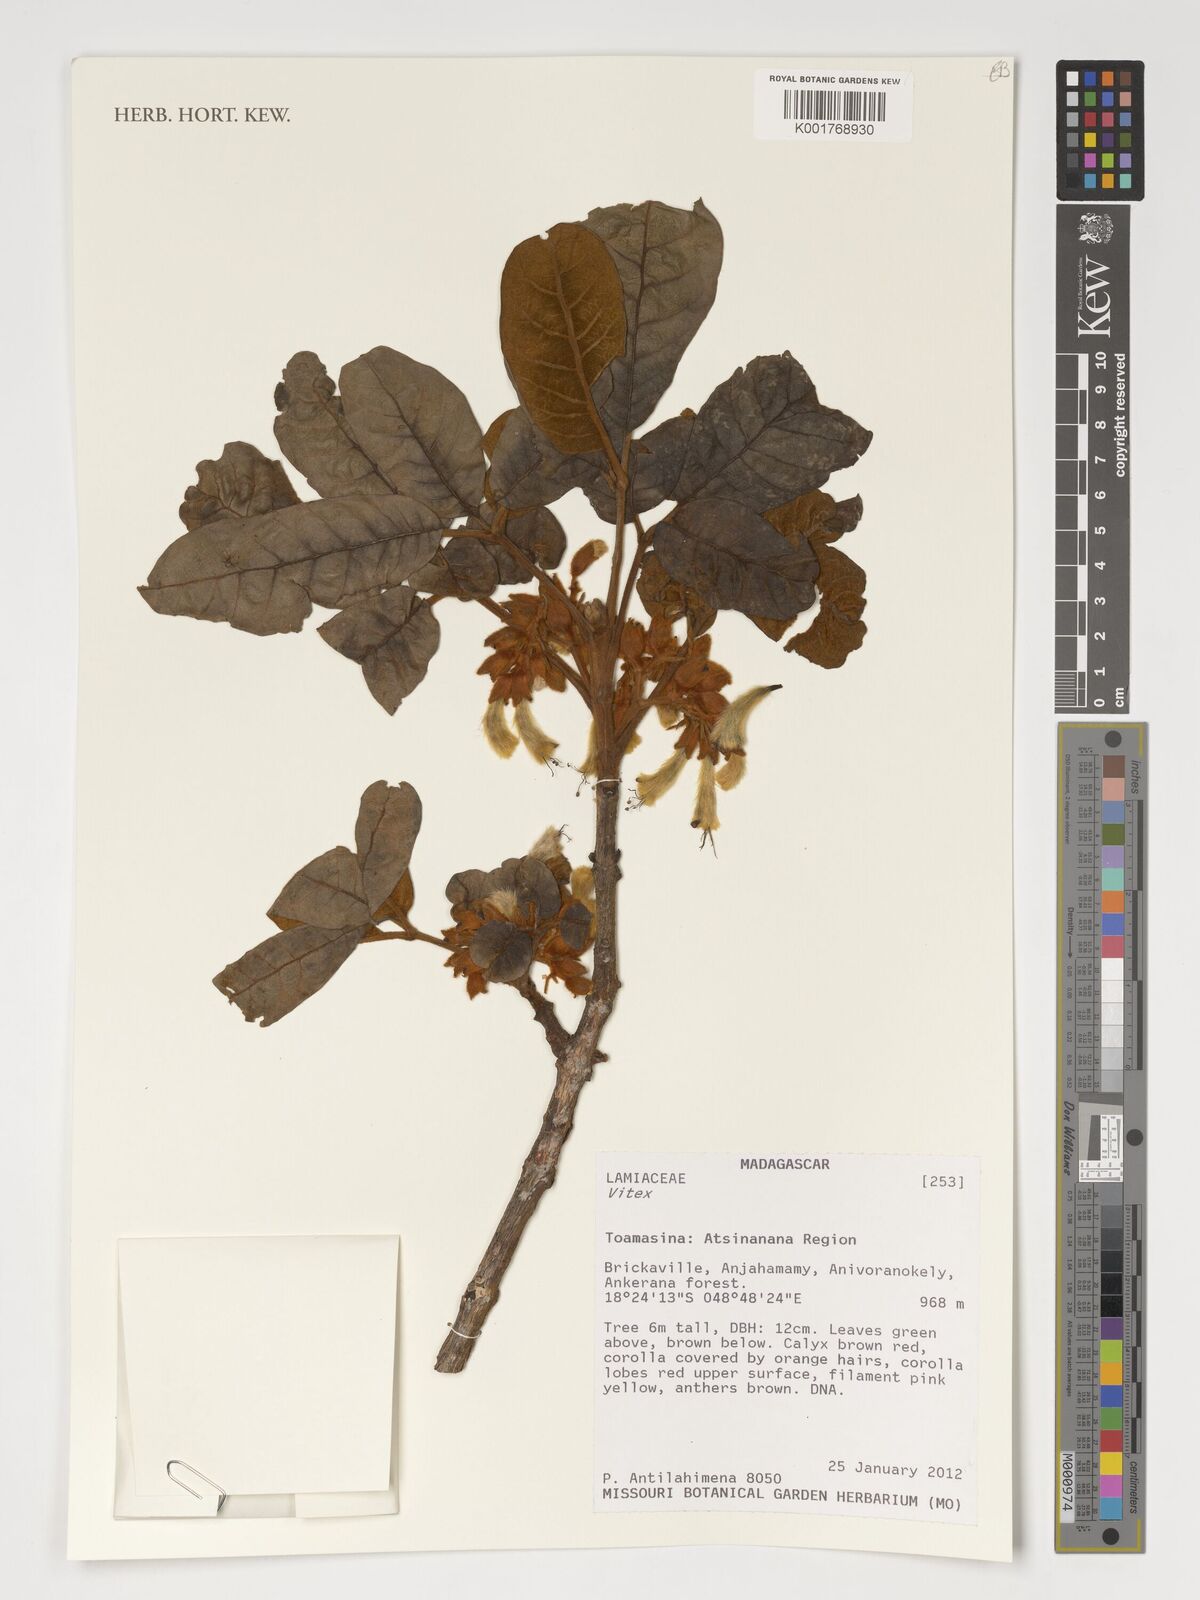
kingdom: Plantae
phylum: Tracheophyta
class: Magnoliopsida
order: Lamiales
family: Lamiaceae
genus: Vitex
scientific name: Vitex
